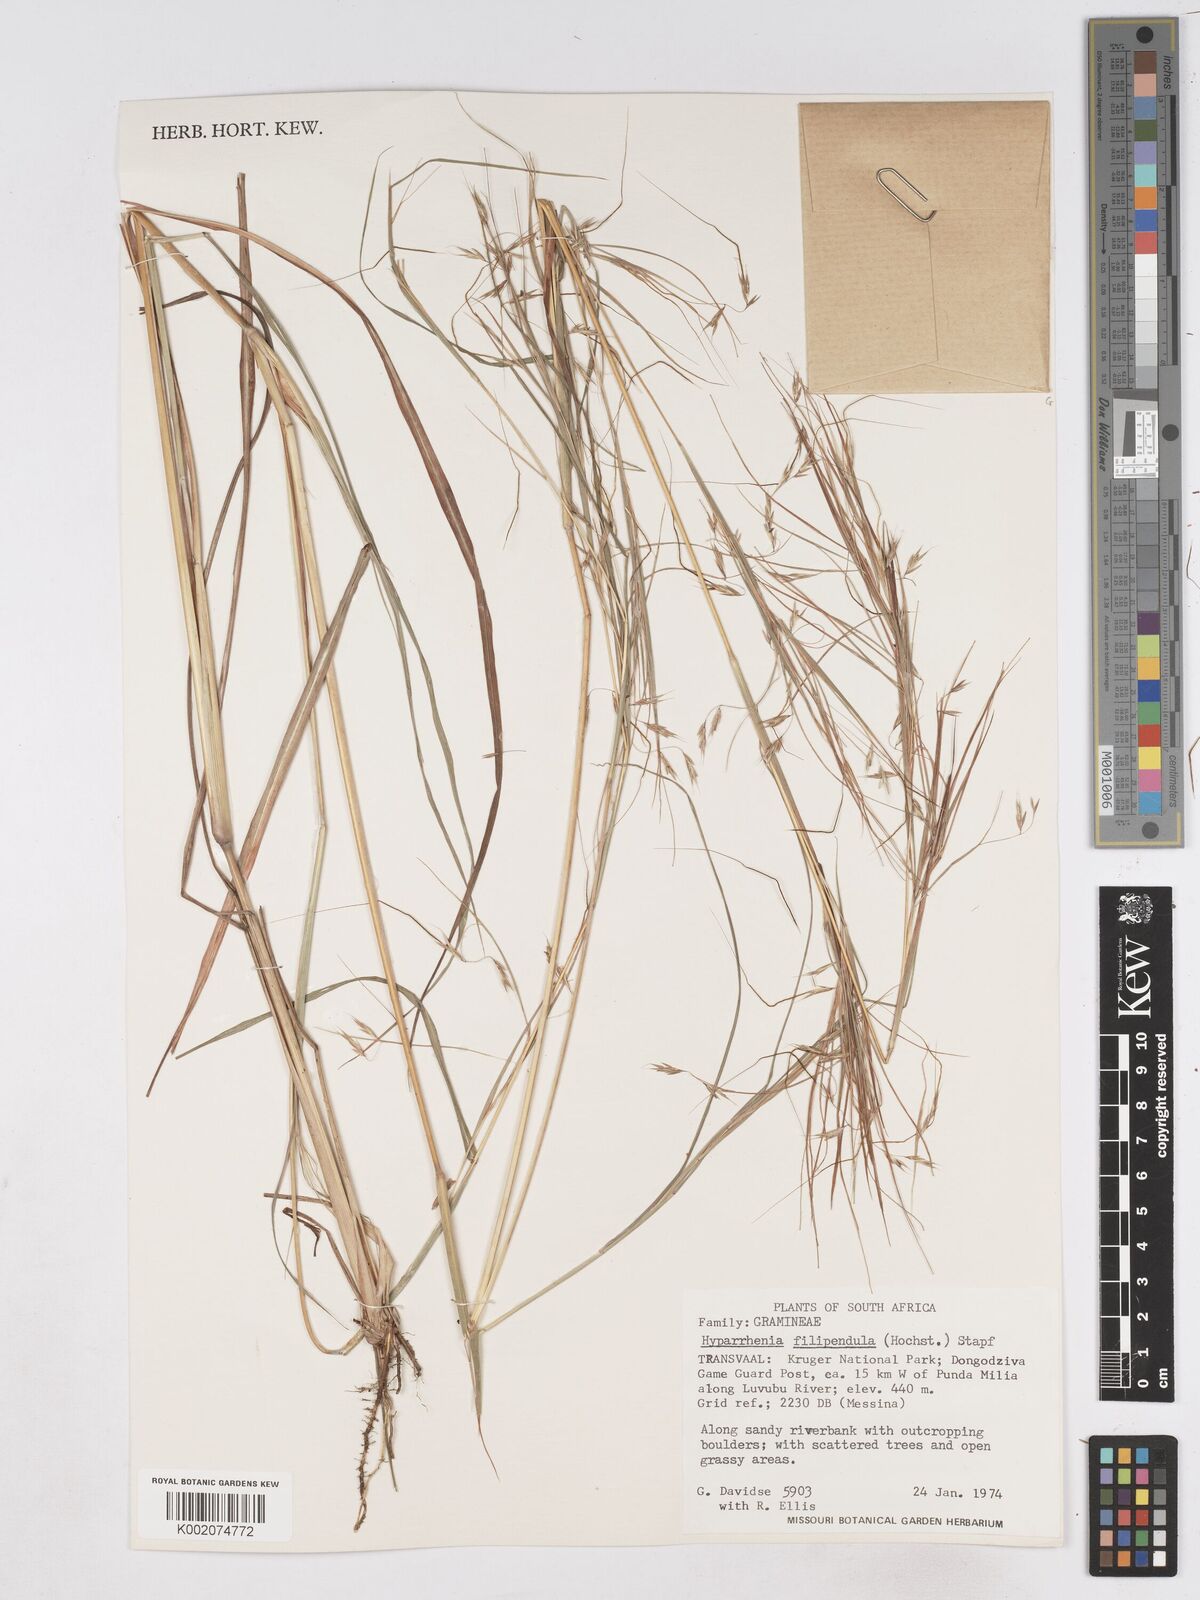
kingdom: Plantae
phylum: Tracheophyta
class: Liliopsida
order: Poales
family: Poaceae
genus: Hyparrhenia
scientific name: Hyparrhenia filipendula
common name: Tambookie grass
